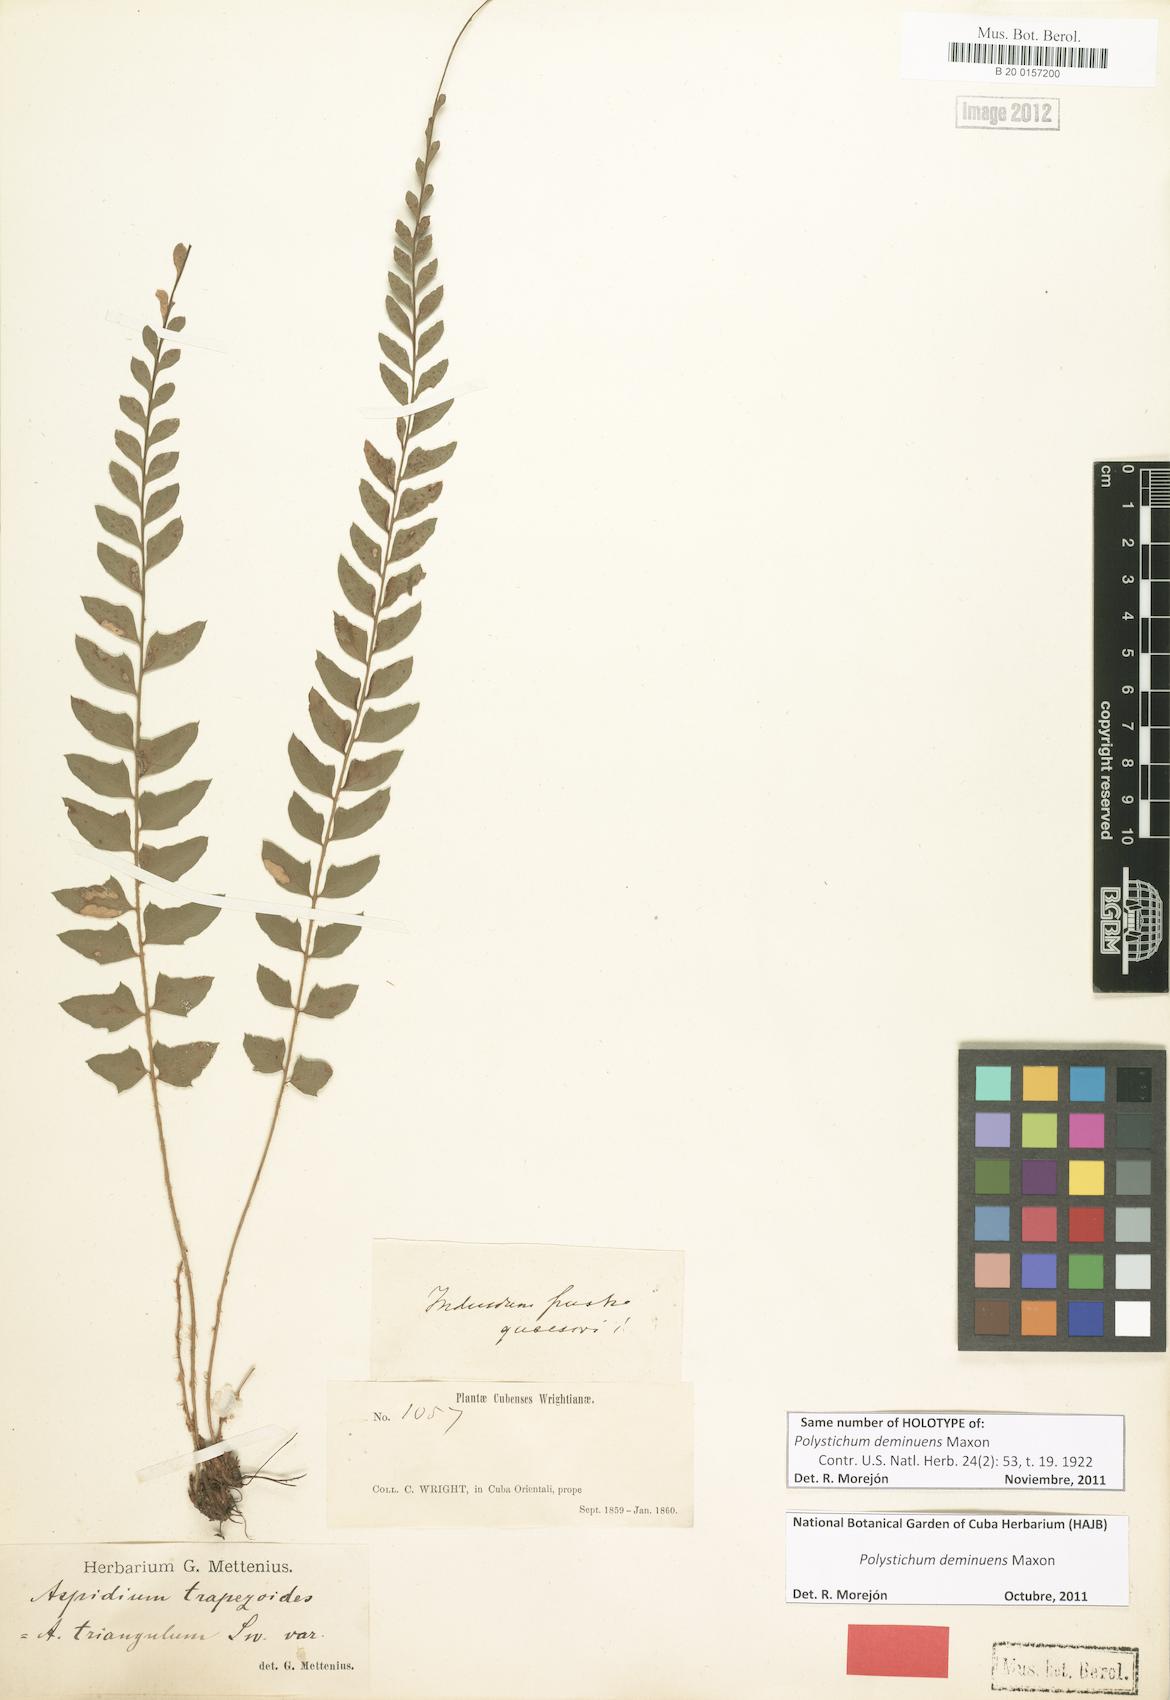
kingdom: Plantae
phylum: Tracheophyta
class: Polypodiopsida
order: Polypodiales
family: Dryopteridaceae
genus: Polystichum
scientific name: Polystichum deminuens
